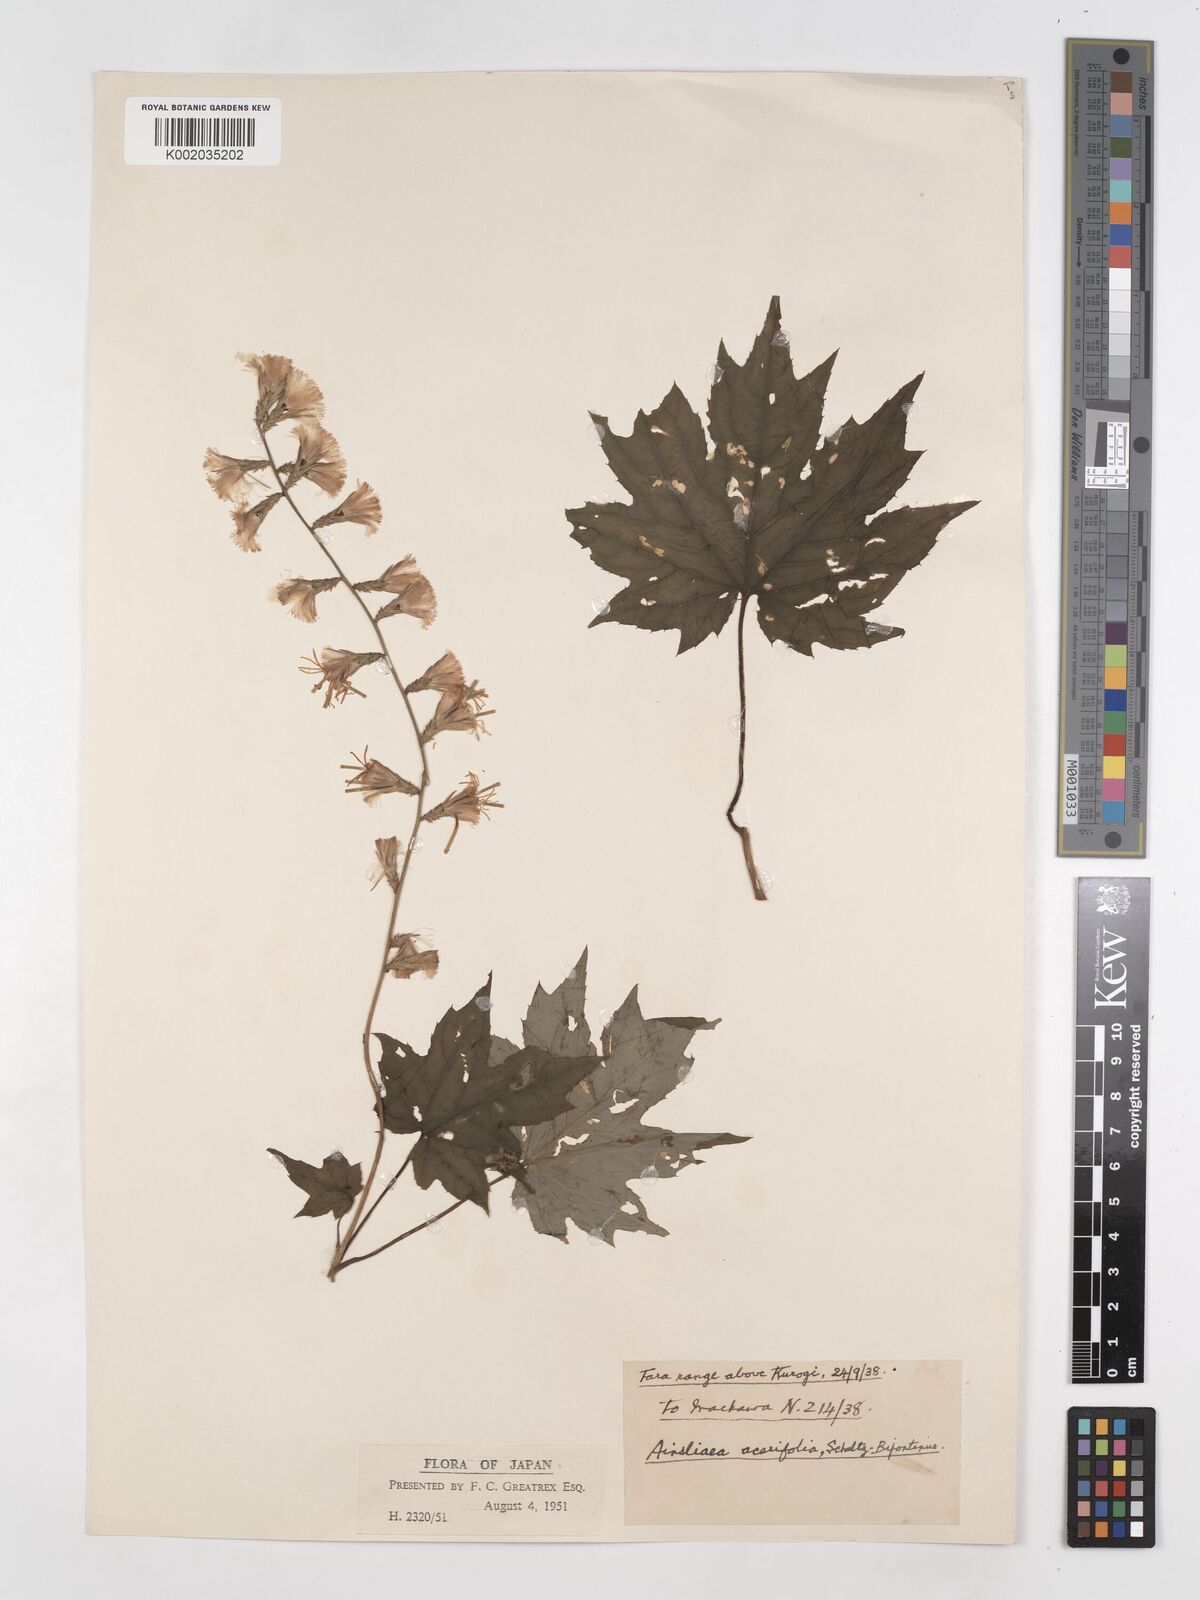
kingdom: Plantae
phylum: Tracheophyta
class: Magnoliopsida
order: Asterales
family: Asteraceae
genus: Ainsliaea
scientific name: Ainsliaea acerifolia
